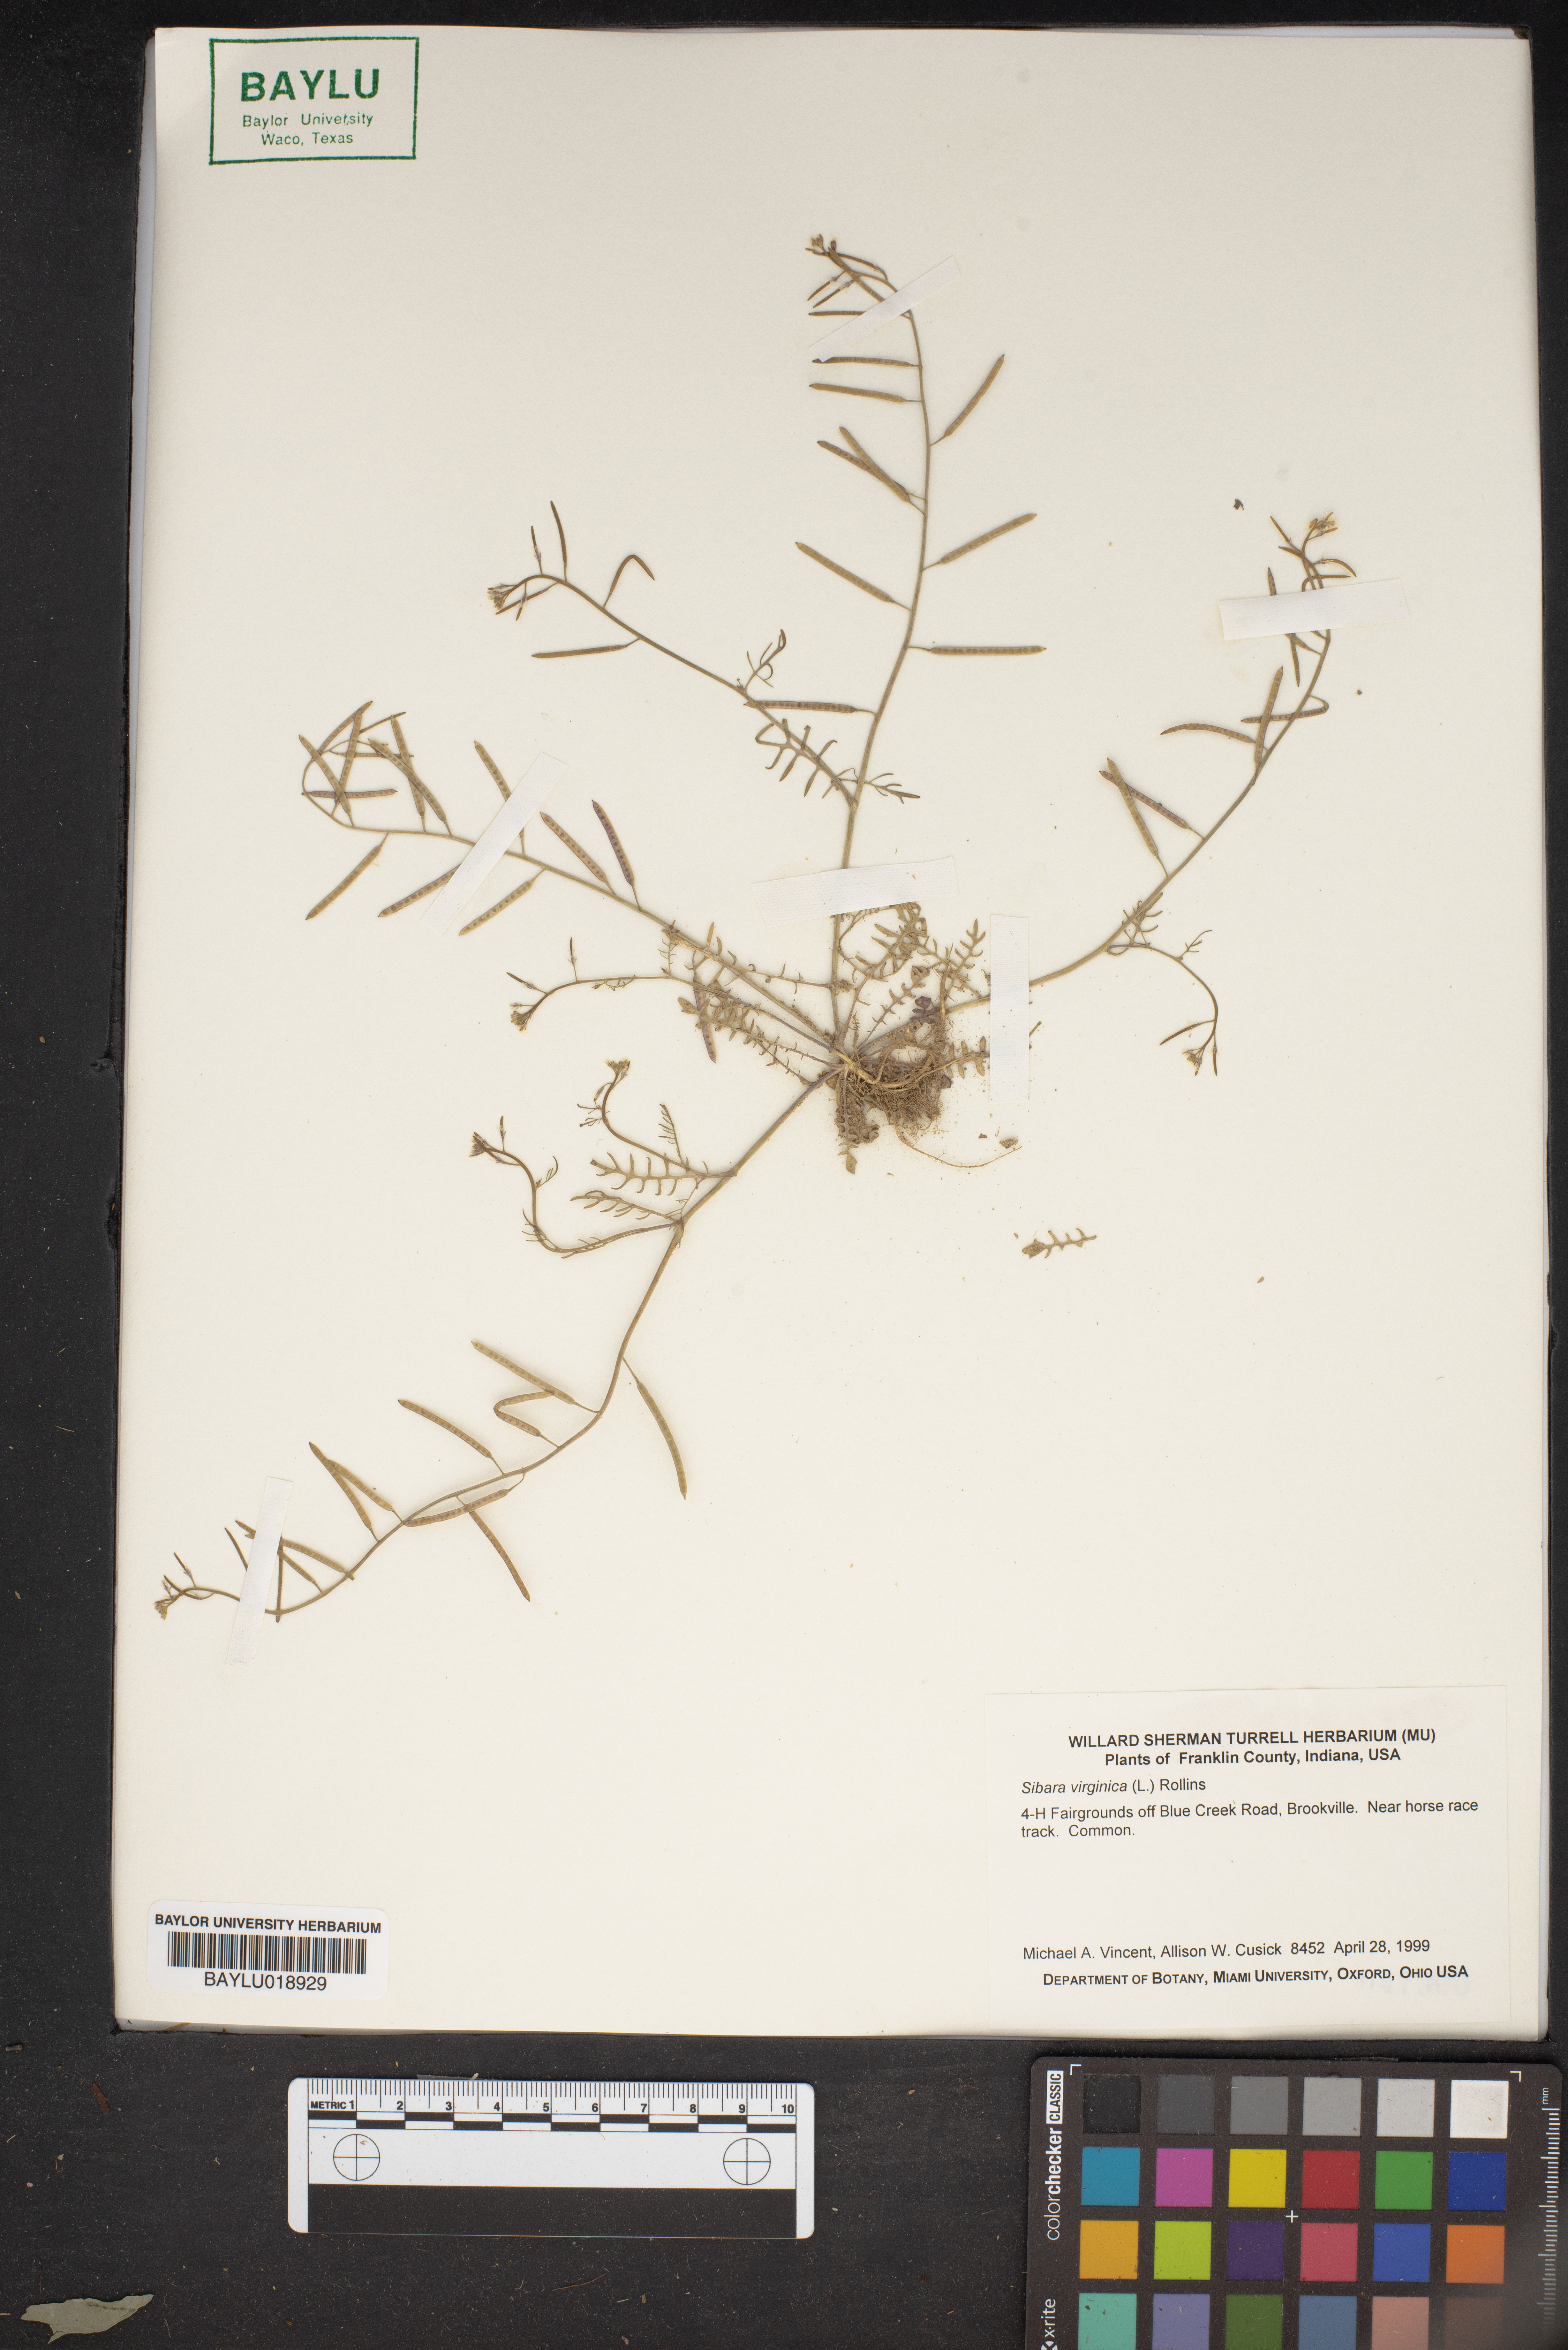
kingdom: Plantae
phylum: Tracheophyta
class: Magnoliopsida
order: Brassicales
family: Brassicaceae
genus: Planodes
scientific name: Planodes virginicum
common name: Virginia cress
